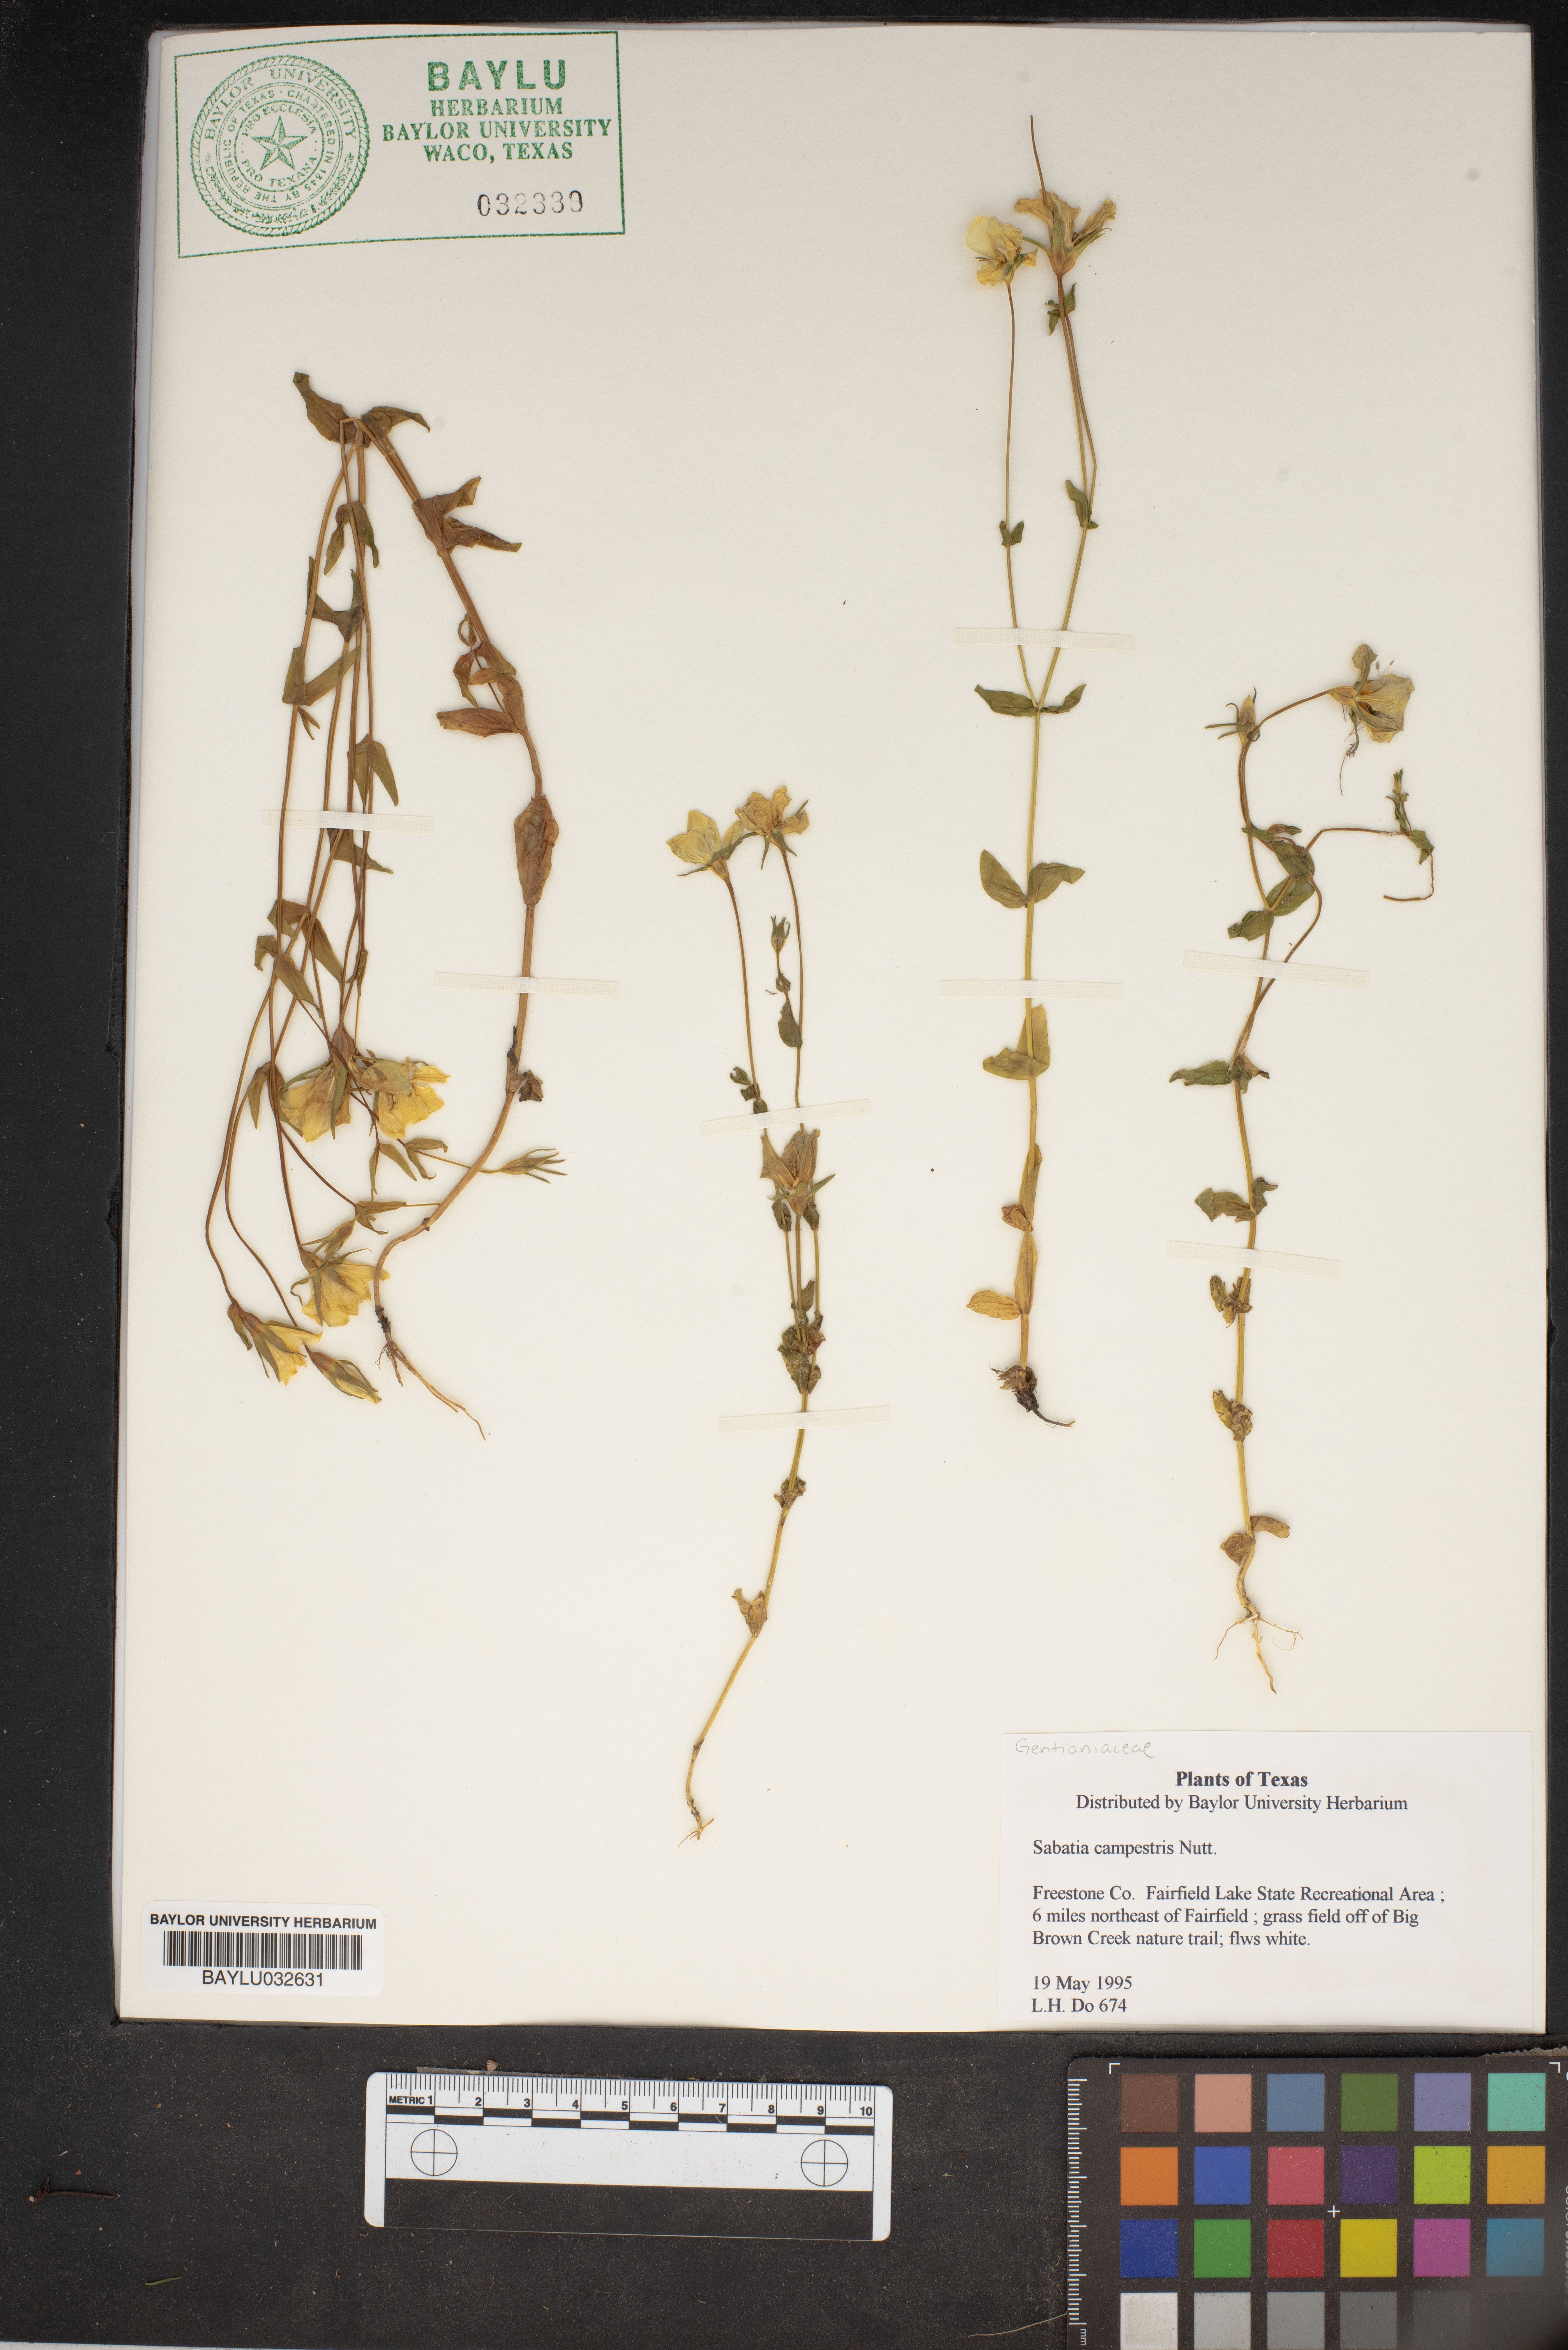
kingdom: Plantae
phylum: Tracheophyta
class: Magnoliopsida
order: Gentianales
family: Gentianaceae
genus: Sabatia
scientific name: Sabatia campestris
